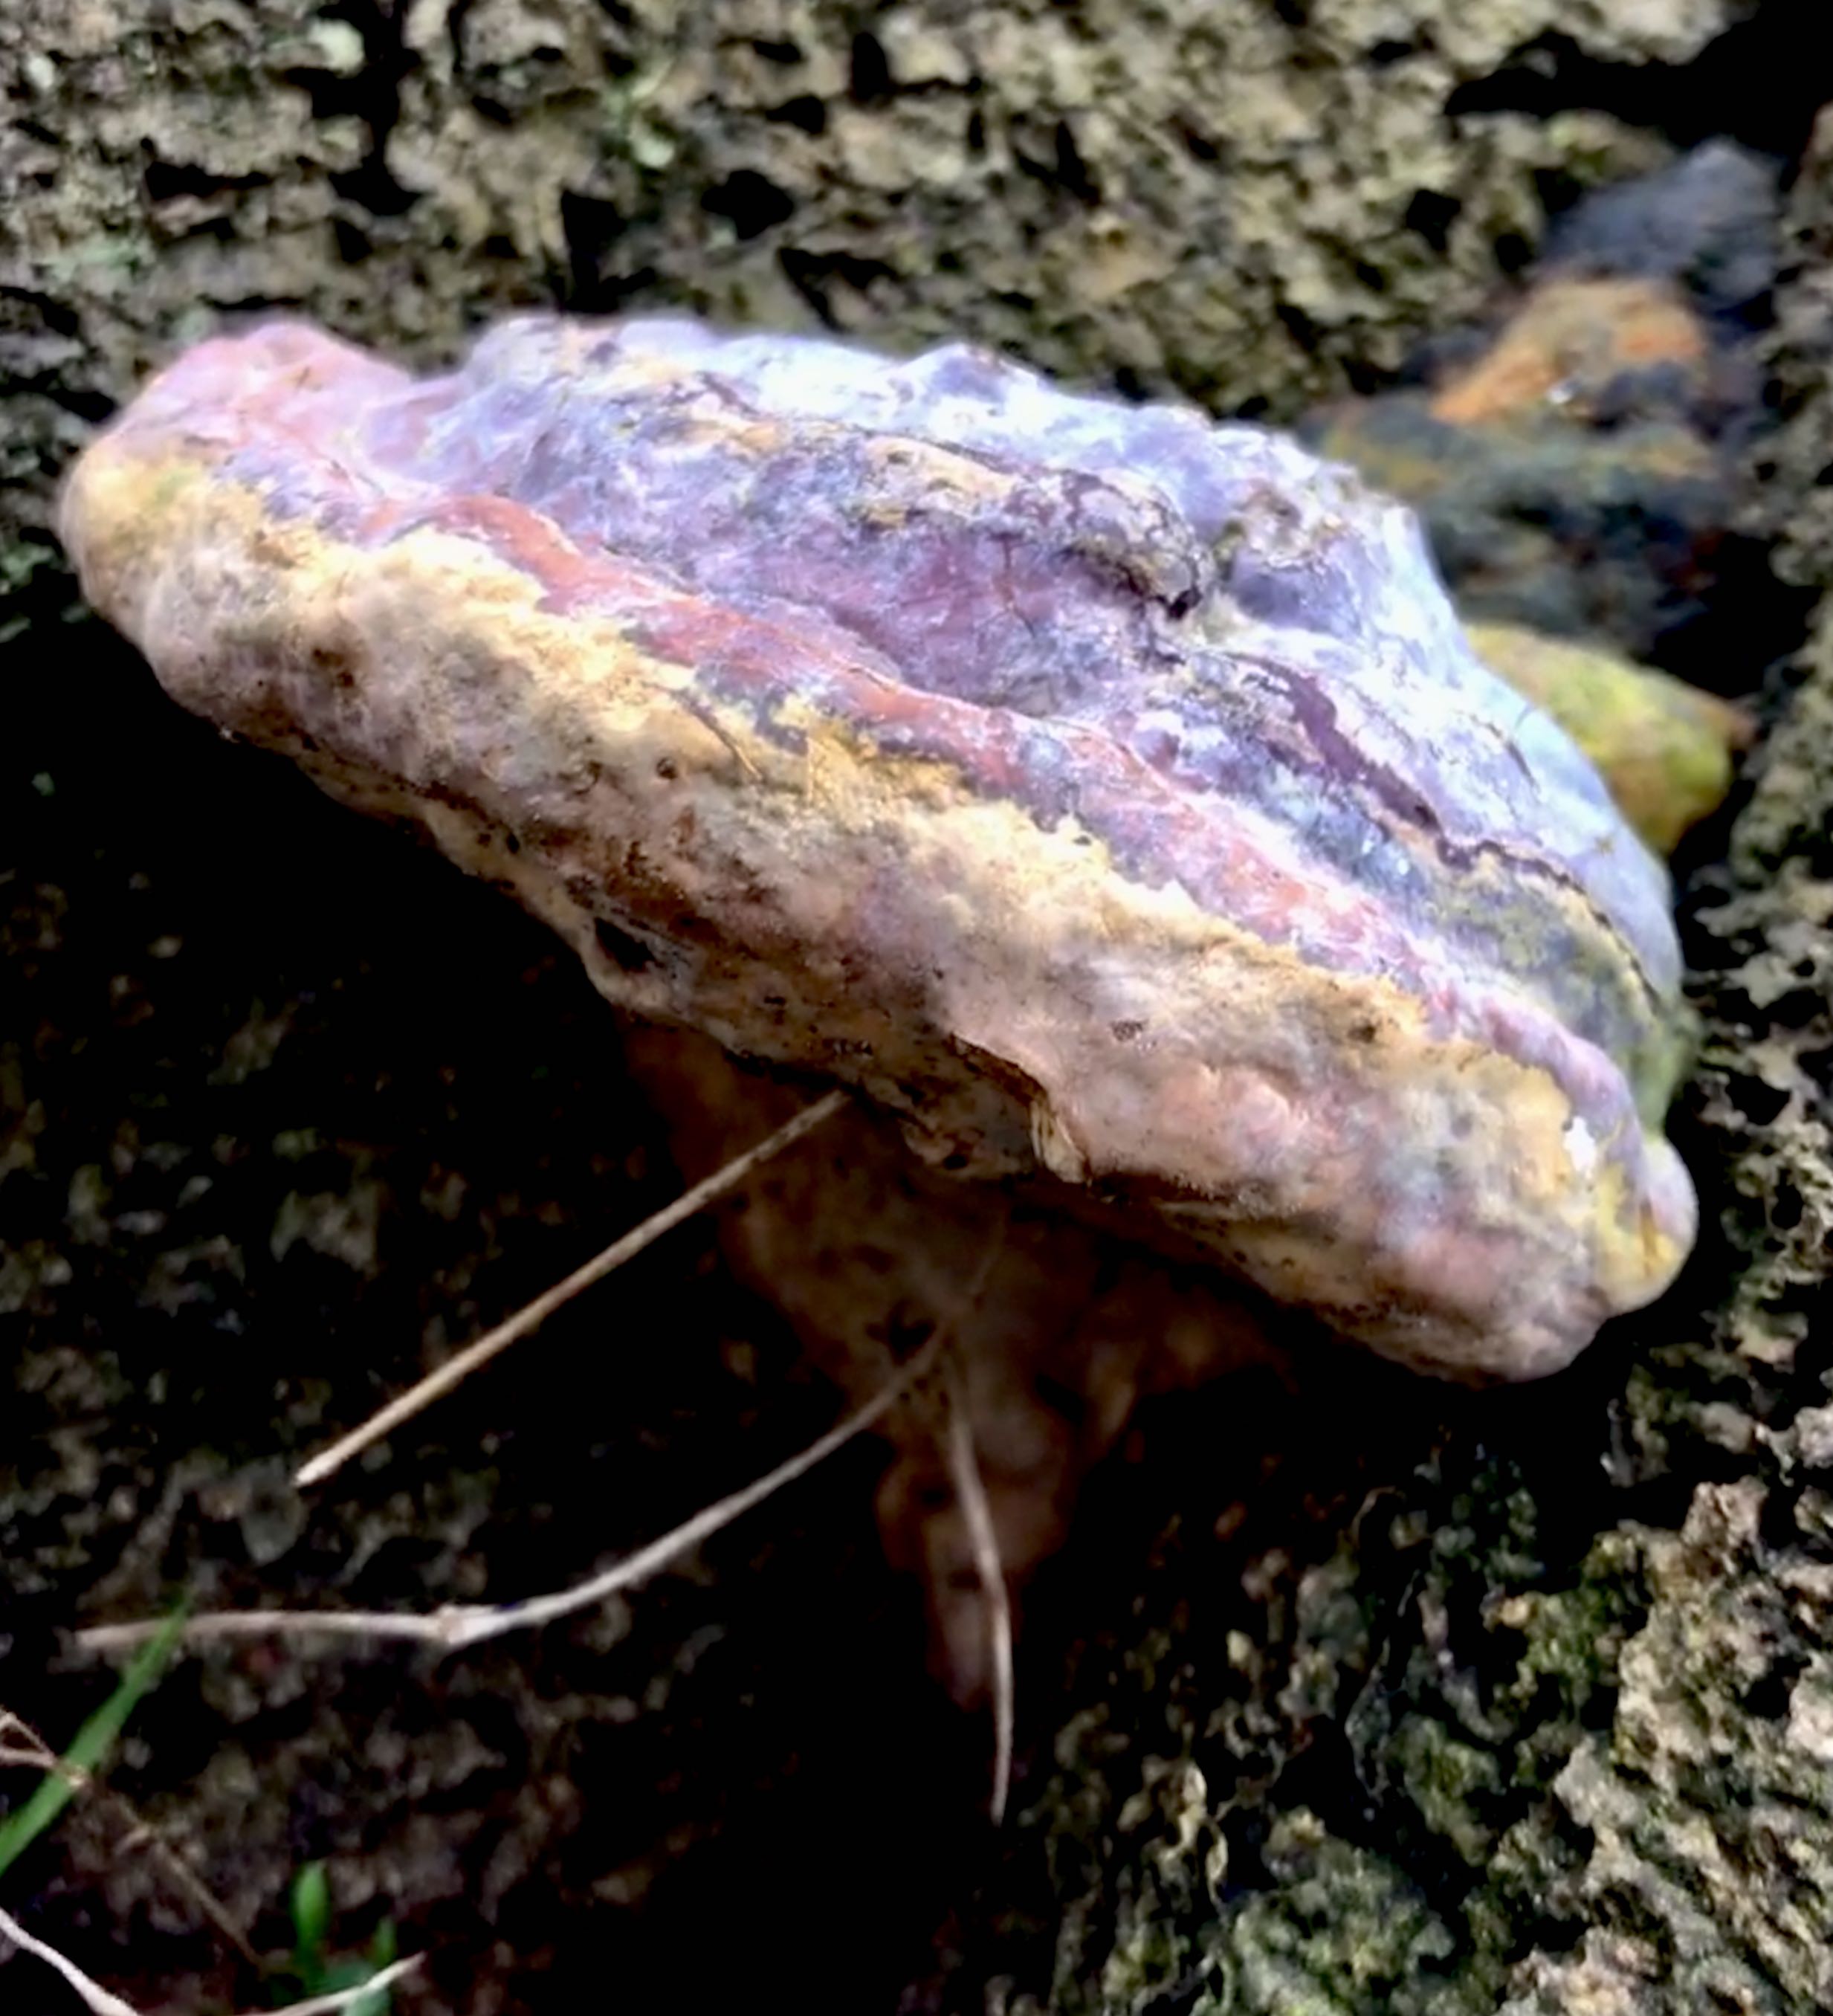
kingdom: Fungi
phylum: Basidiomycota
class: Agaricomycetes
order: Polyporales
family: Polyporaceae
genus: Ganoderma
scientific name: Ganoderma pfeifferi
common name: kobberrød lakporesvamp
